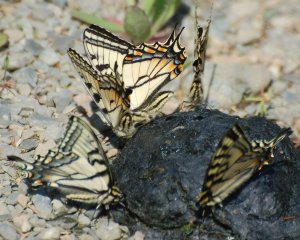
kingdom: Animalia
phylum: Arthropoda
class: Insecta
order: Lepidoptera
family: Papilionidae
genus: Pterourus
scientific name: Pterourus canadensis
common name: Canadian Tiger Swallowtail
